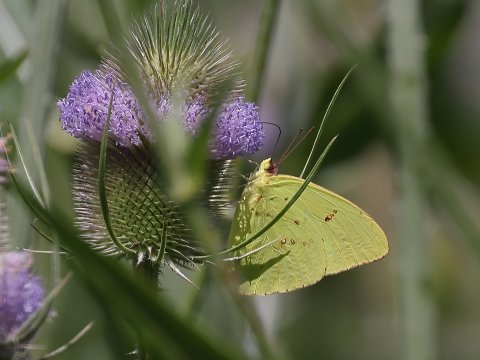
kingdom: Animalia
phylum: Arthropoda
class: Insecta
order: Lepidoptera
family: Pieridae
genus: Phoebis
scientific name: Phoebis sennae
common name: Cloudless Sulphur
